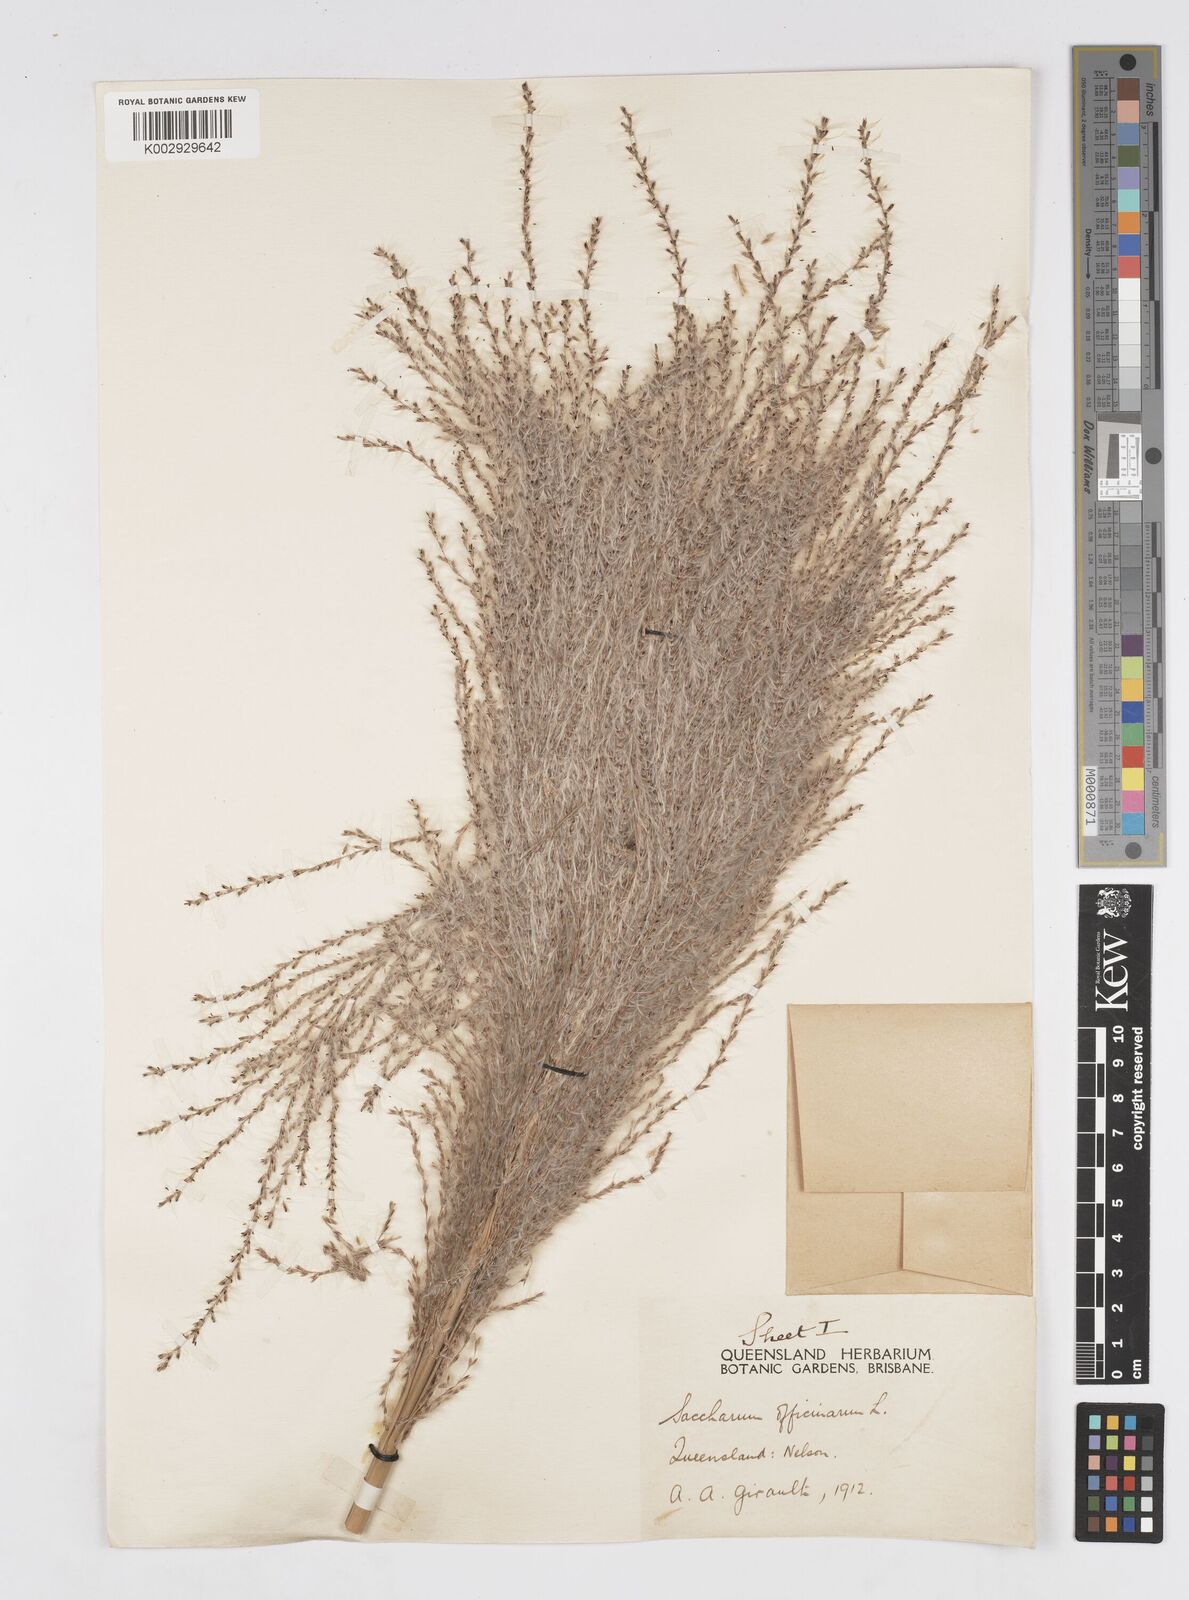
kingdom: Plantae
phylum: Tracheophyta
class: Liliopsida
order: Poales
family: Poaceae
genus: Saccharum
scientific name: Saccharum officinarum
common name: Sugarcane
